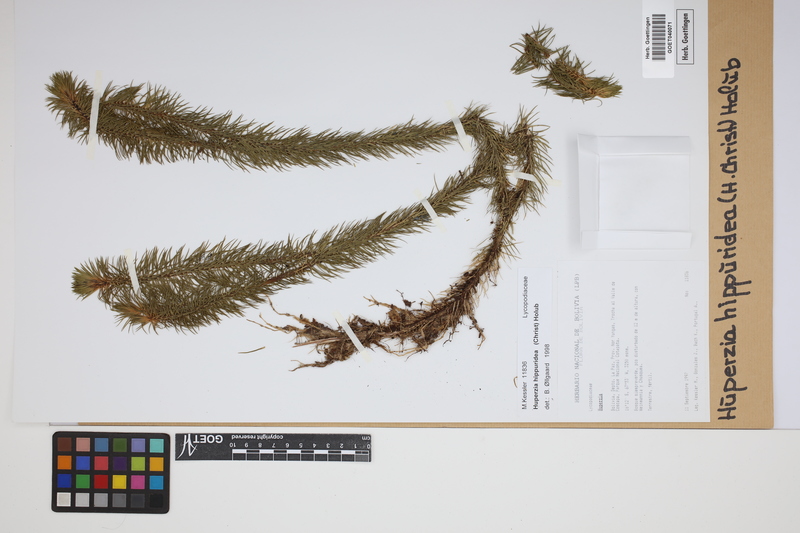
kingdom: Plantae
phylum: Tracheophyta
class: Lycopodiopsida
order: Lycopodiales
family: Lycopodiaceae
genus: Phlegmariurus
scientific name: Phlegmariurus hippurideus
